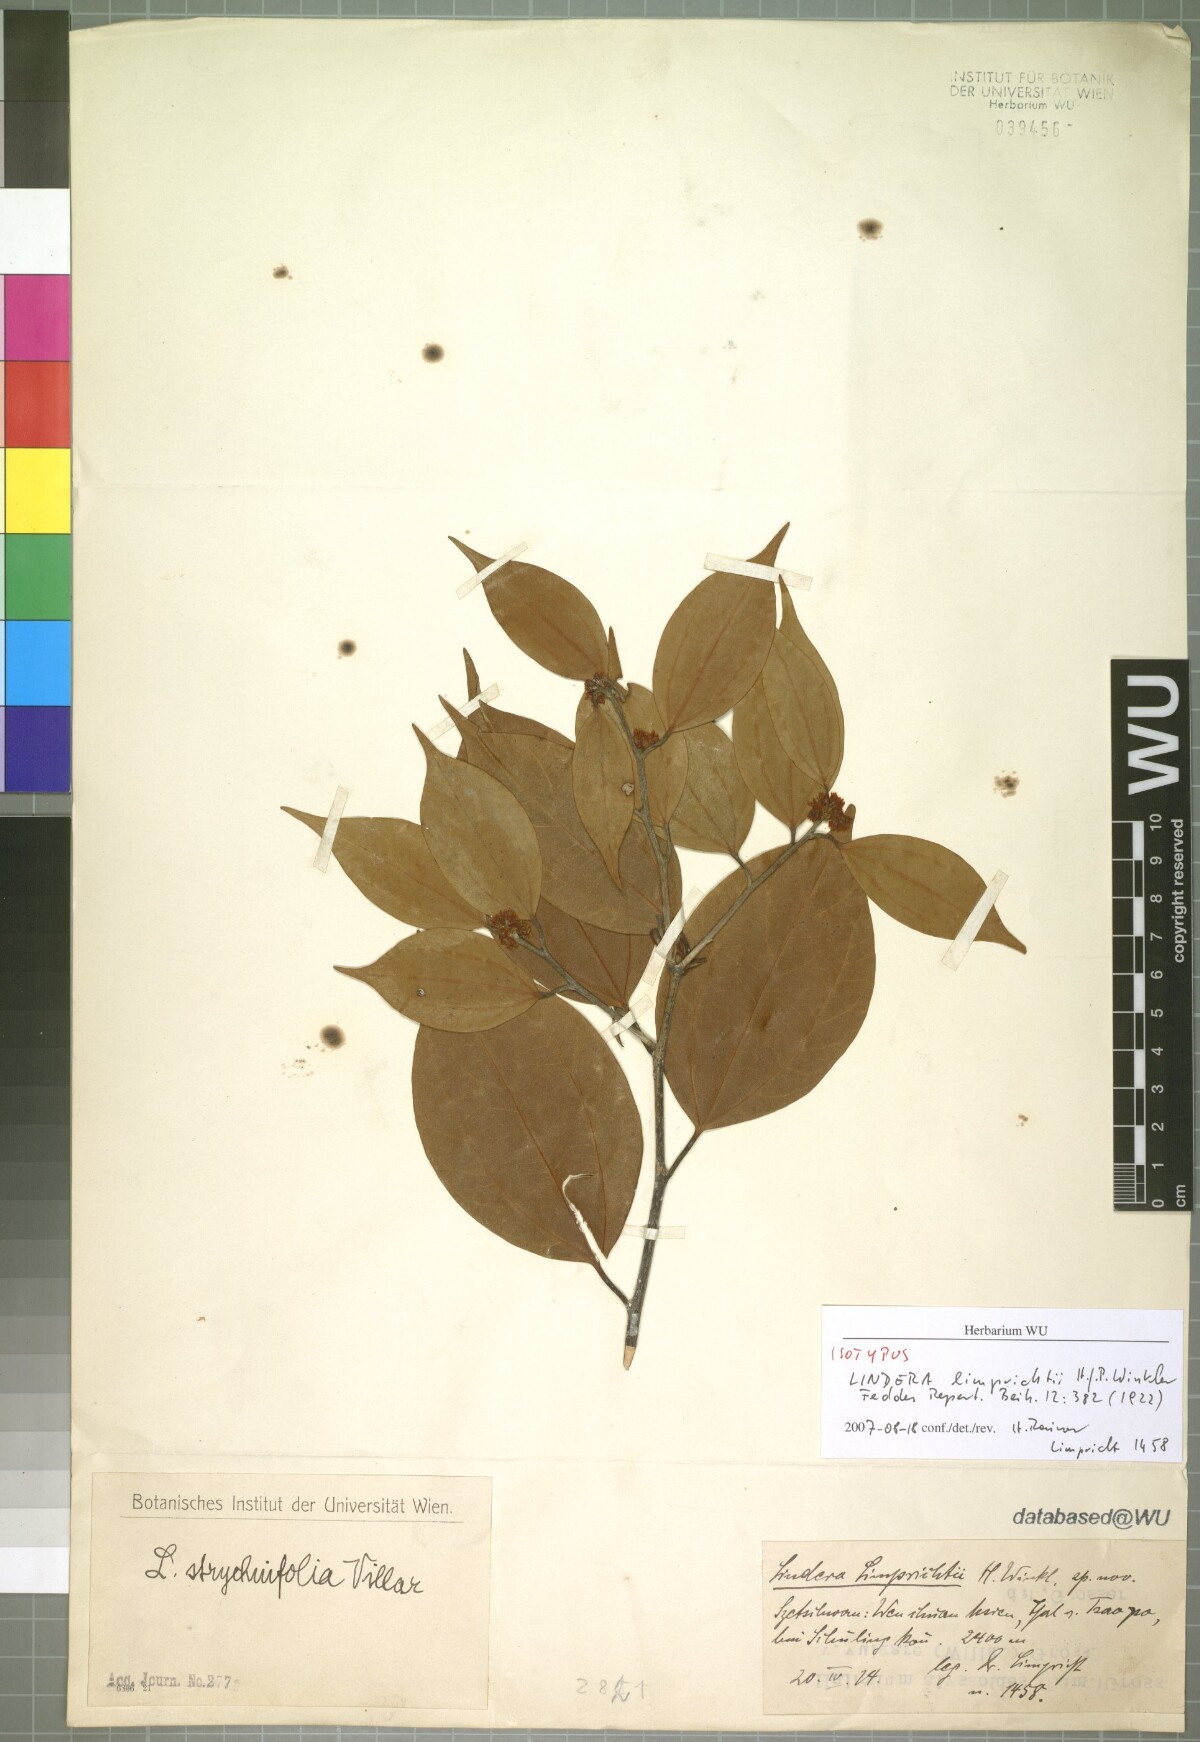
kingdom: Plantae
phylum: Tracheophyta
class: Magnoliopsida
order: Laurales
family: Lauraceae
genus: Lindera
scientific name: Lindera limprichtii
